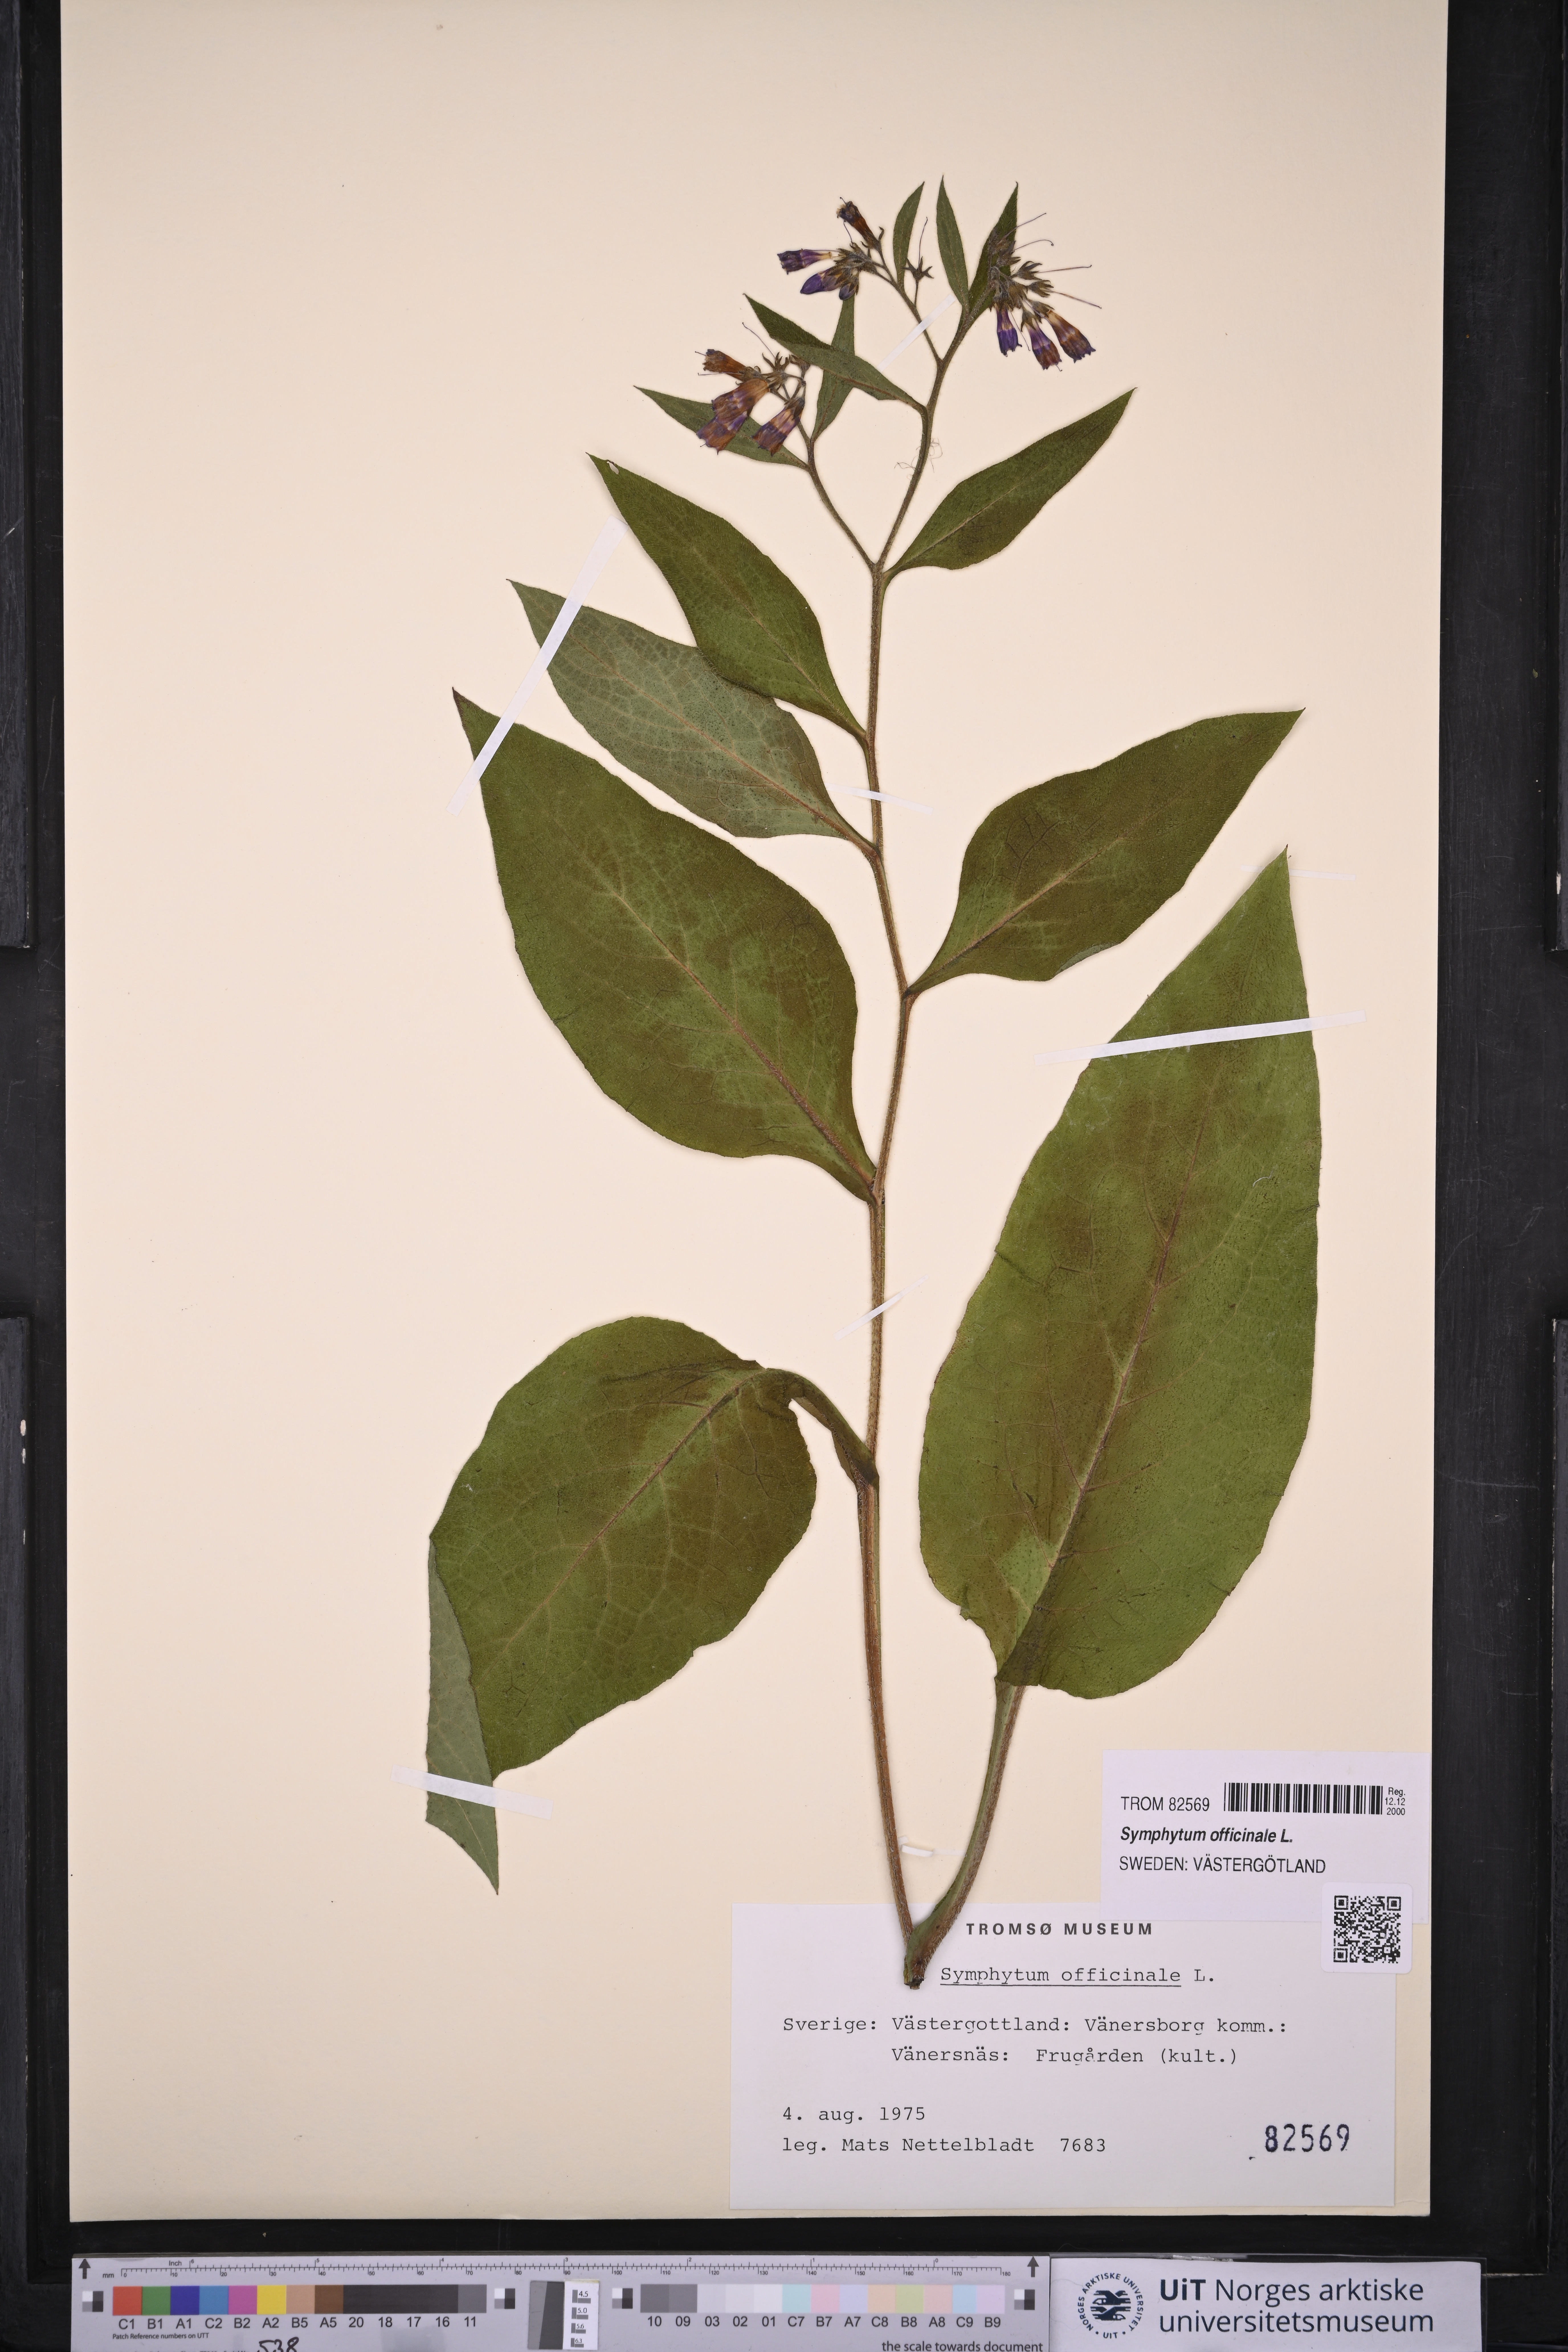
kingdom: Plantae
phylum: Tracheophyta
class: Magnoliopsida
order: Boraginales
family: Boraginaceae
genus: Symphytum
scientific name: Symphytum officinale
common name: Common comfrey
